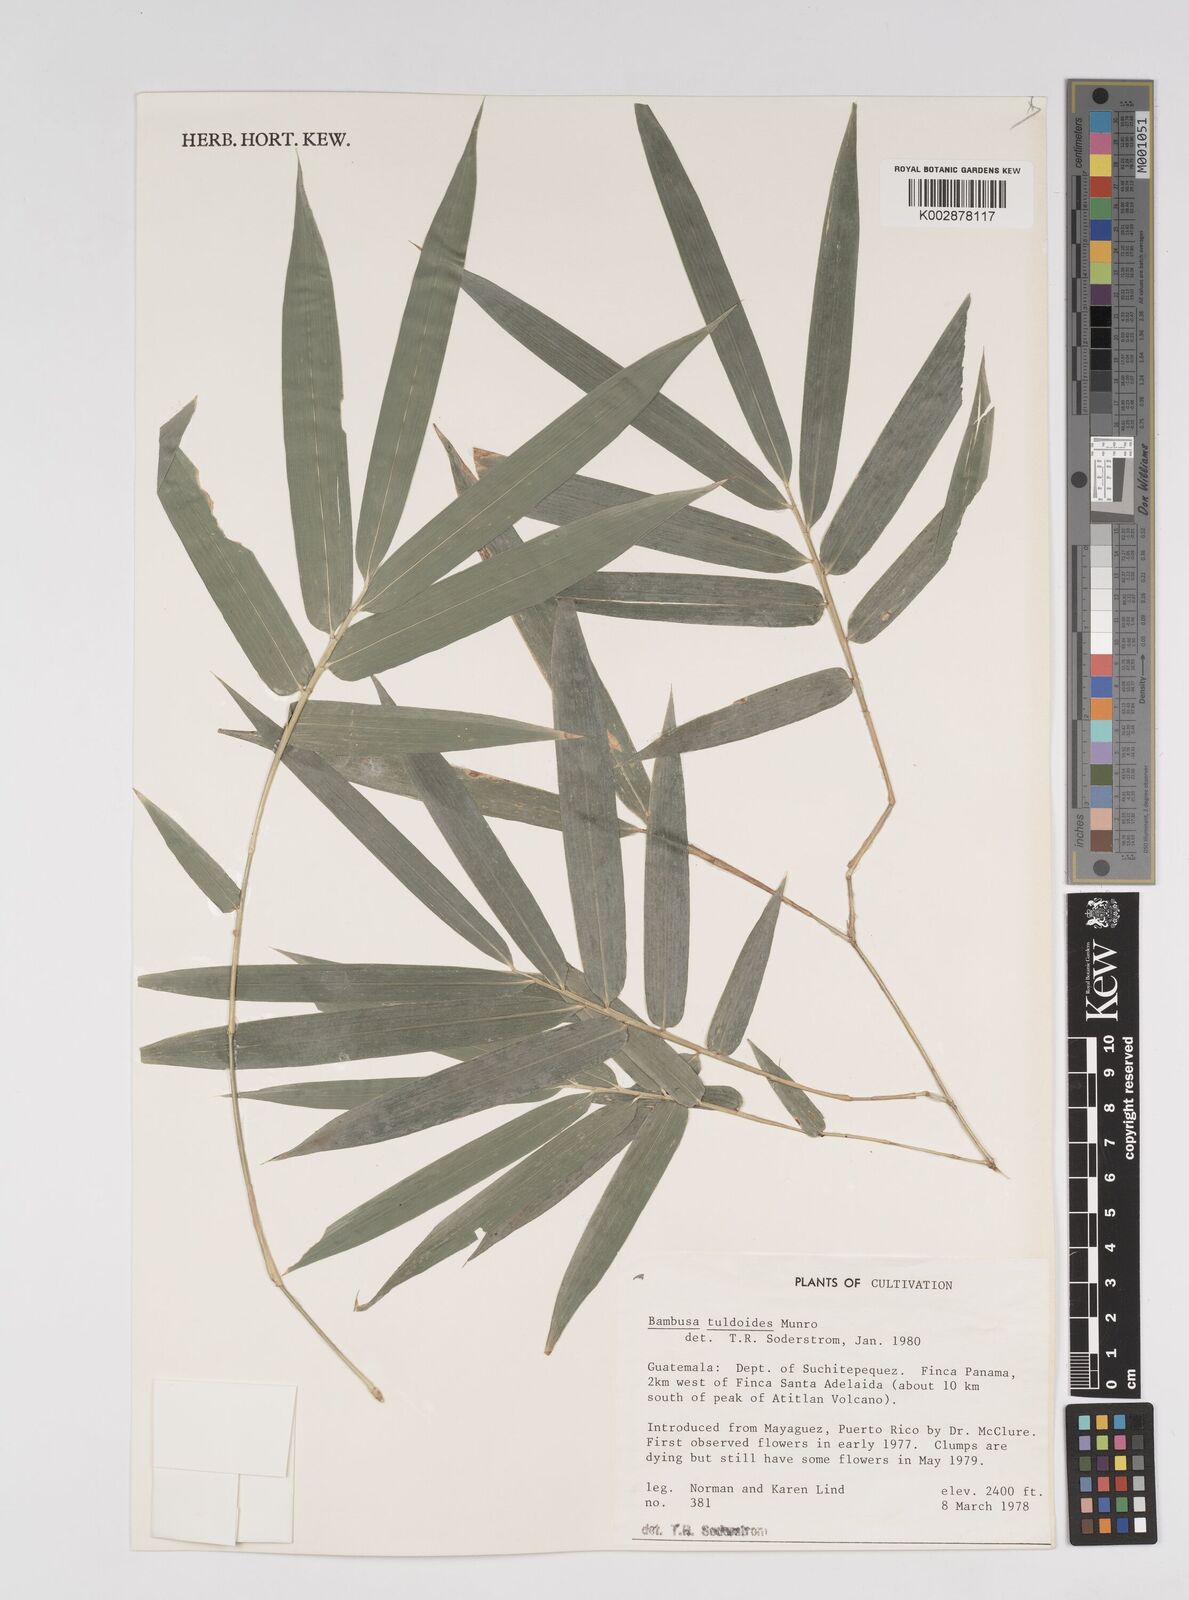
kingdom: Plantae
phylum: Tracheophyta
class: Liliopsida
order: Poales
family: Poaceae
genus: Bambusa
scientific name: Bambusa tuldoides
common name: Verdant bamboo
